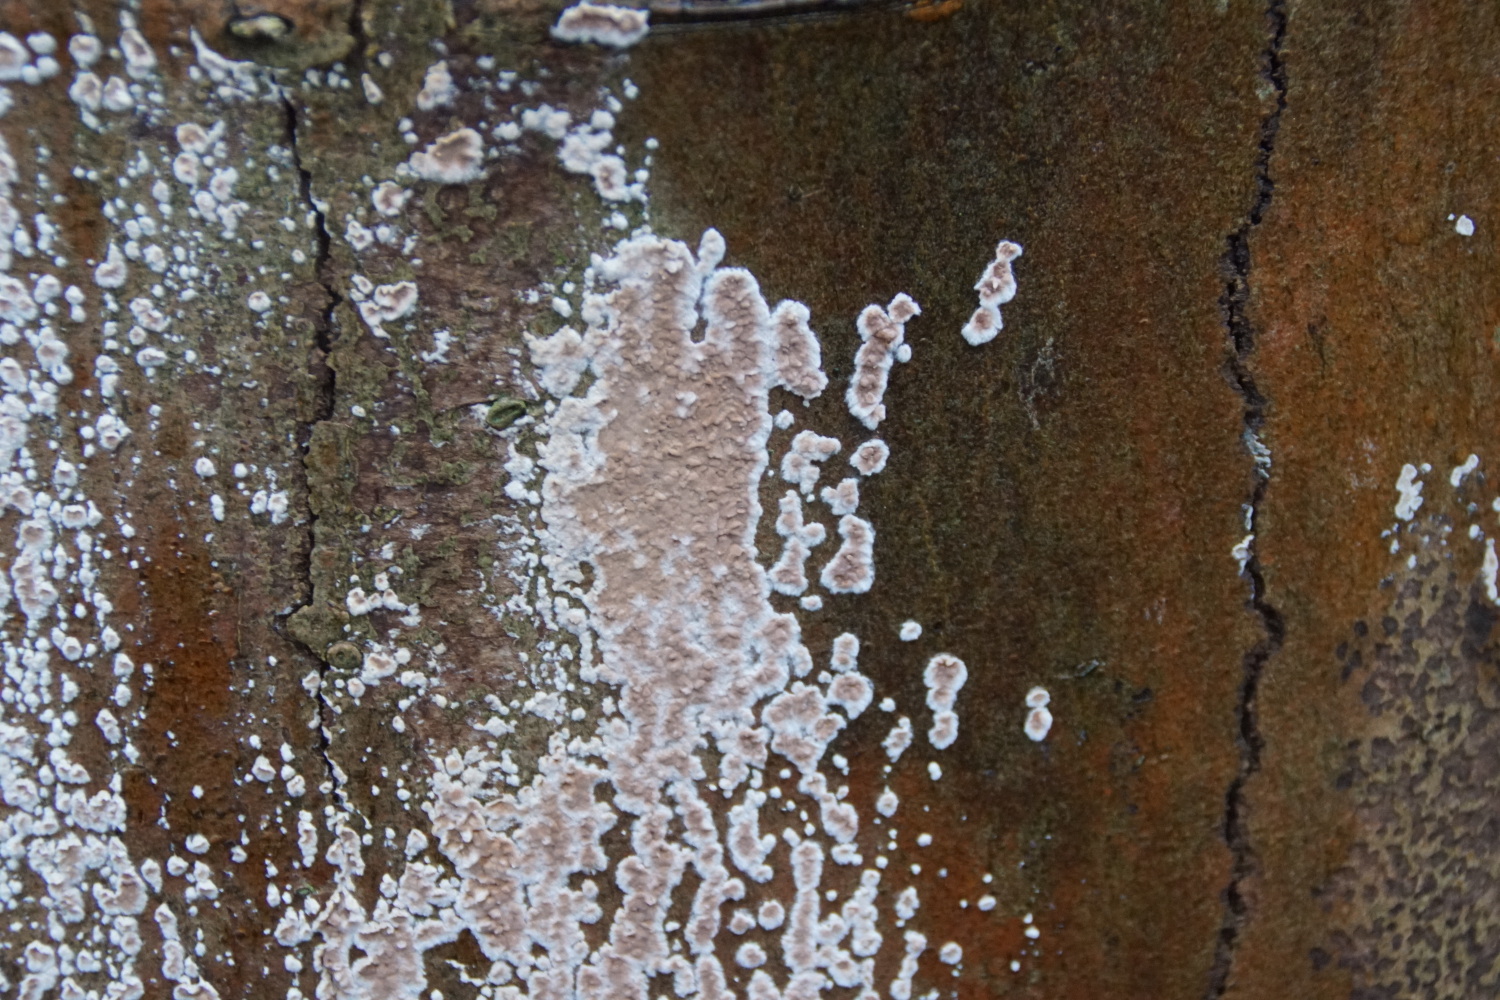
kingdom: Fungi
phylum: Basidiomycota
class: Agaricomycetes
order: Agaricales
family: Physalacriaceae
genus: Cylindrobasidium
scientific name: Cylindrobasidium evolvens
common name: sprækkehinde
